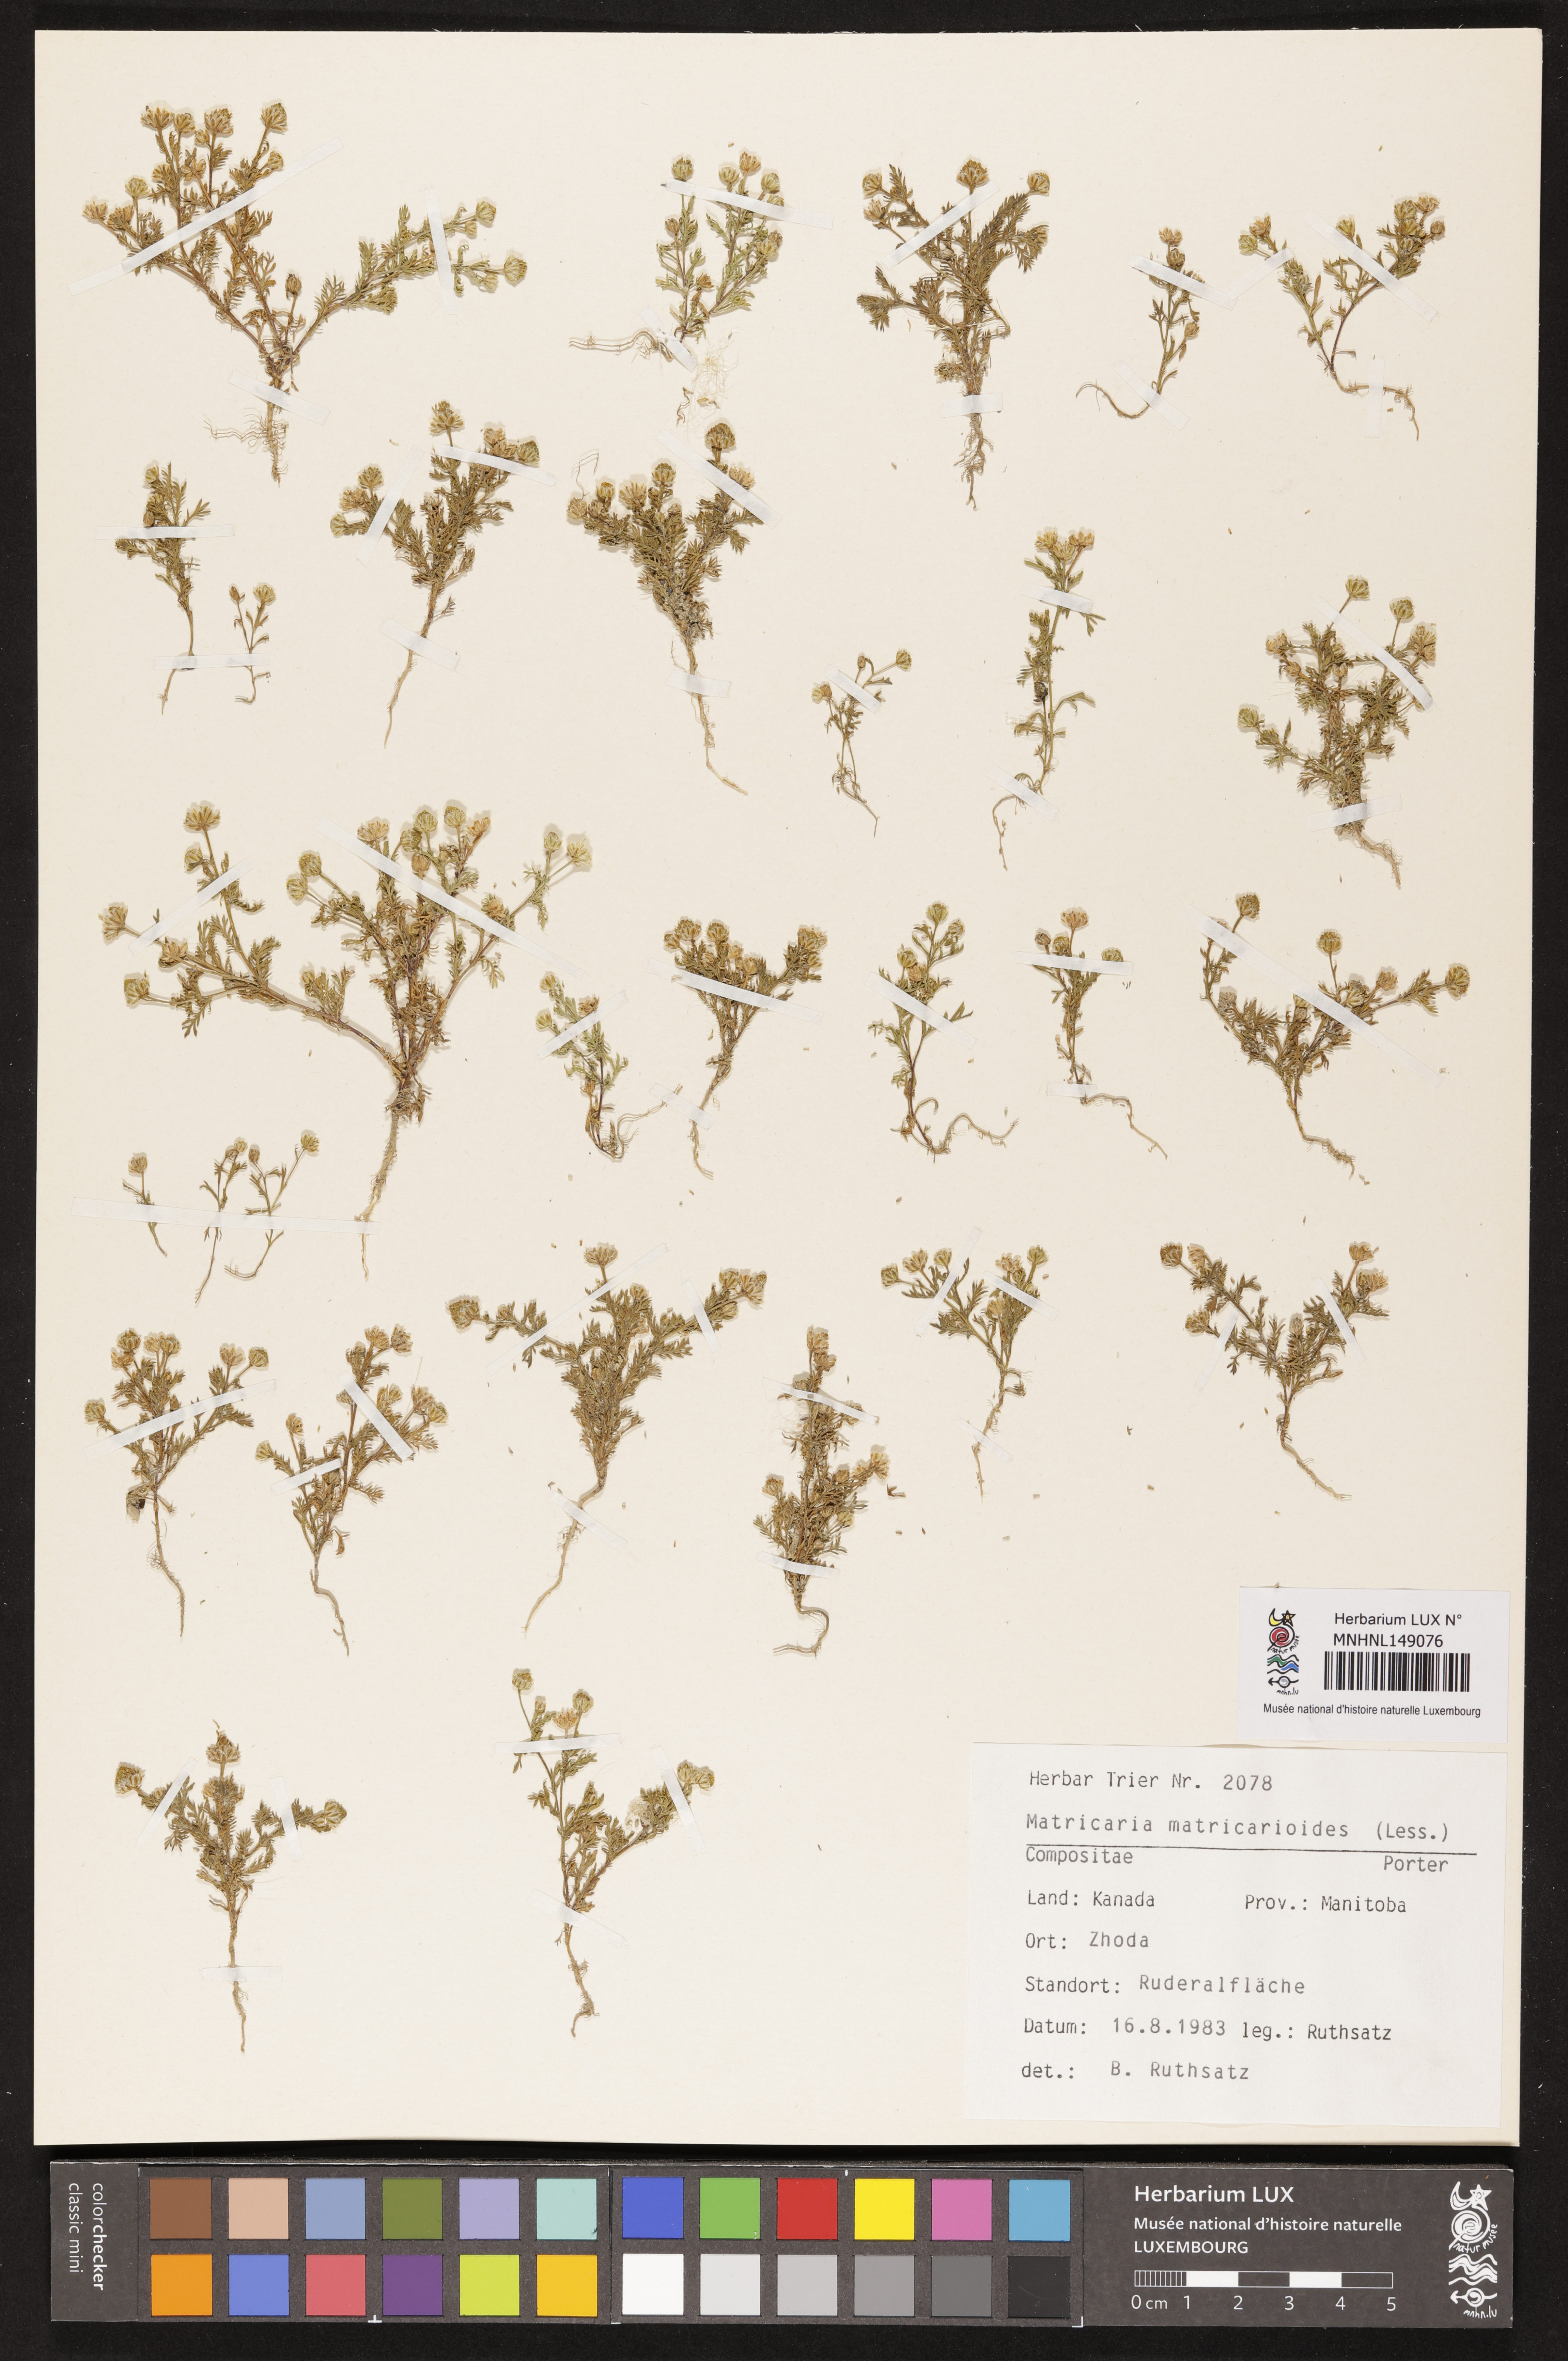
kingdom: Plantae
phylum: Tracheophyta
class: Magnoliopsida
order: Asterales
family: Asteraceae
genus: Matricaria
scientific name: Matricaria discoidea
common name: Disc mayweed
